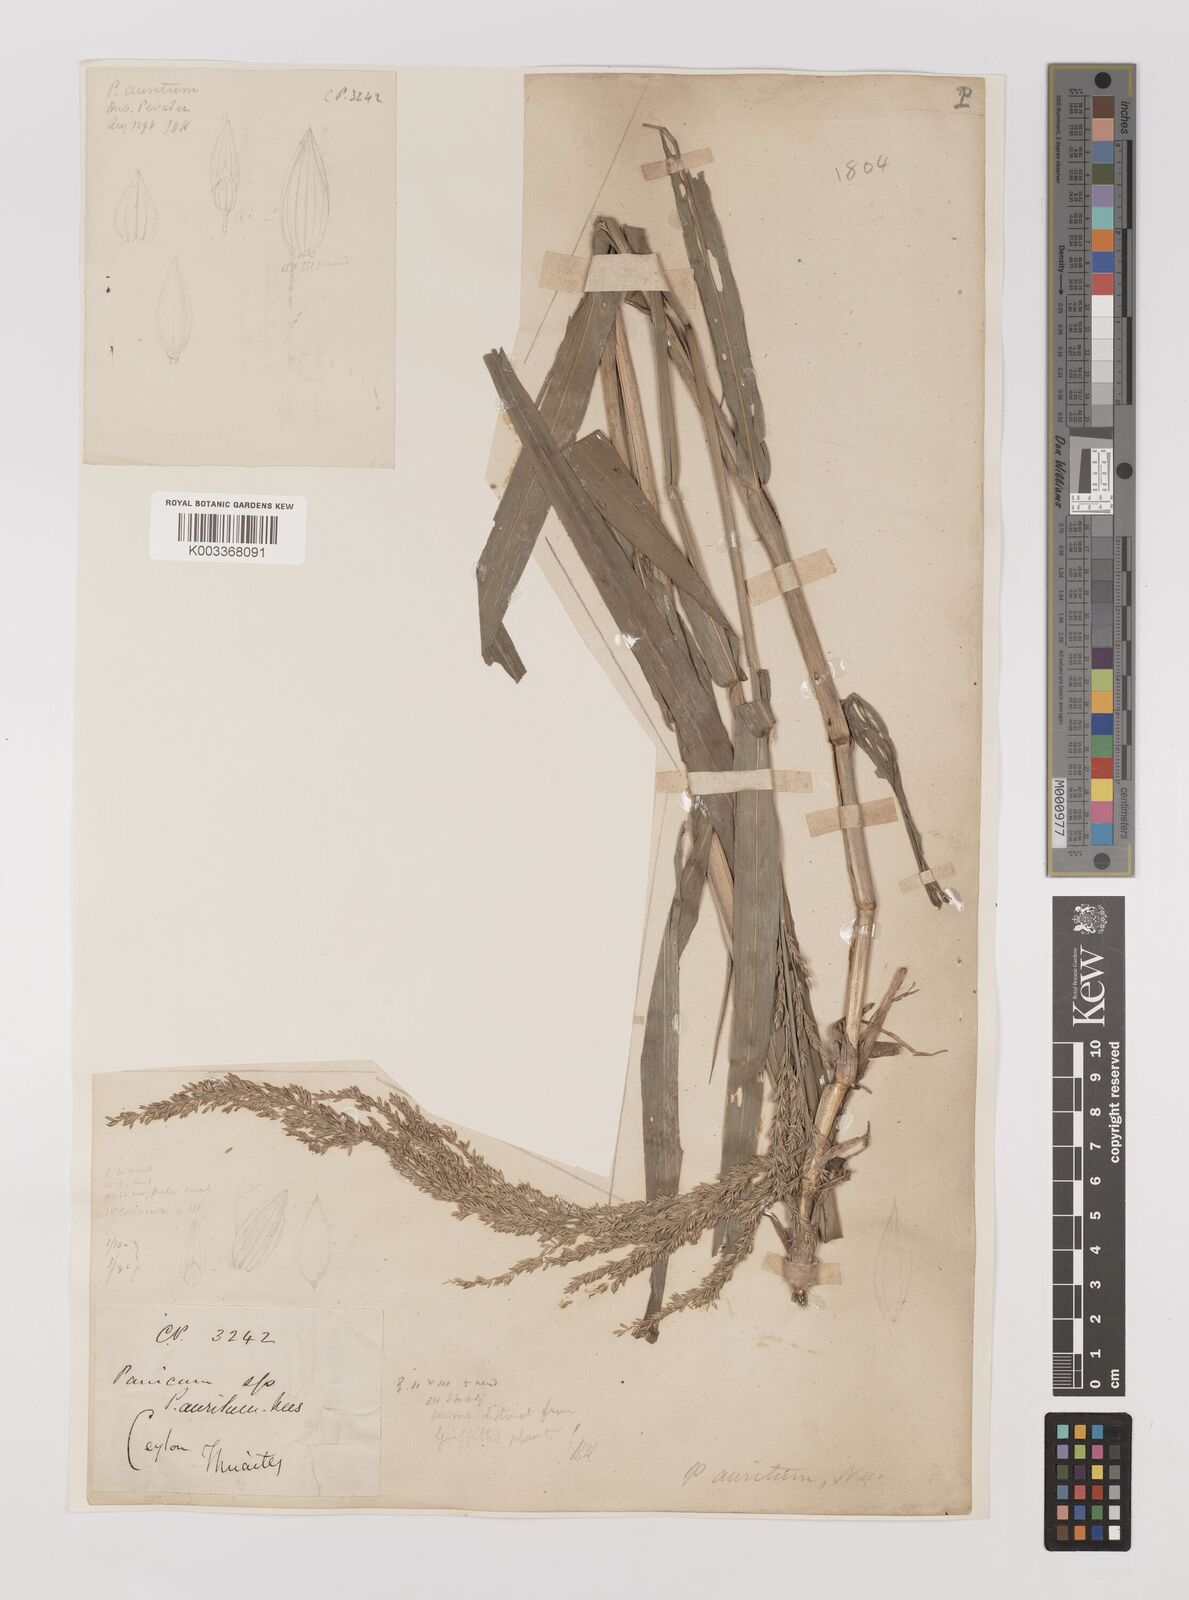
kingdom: Plantae
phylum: Tracheophyta
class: Liliopsida
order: Poales
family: Poaceae
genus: Hymenachne
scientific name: Hymenachne aurita
